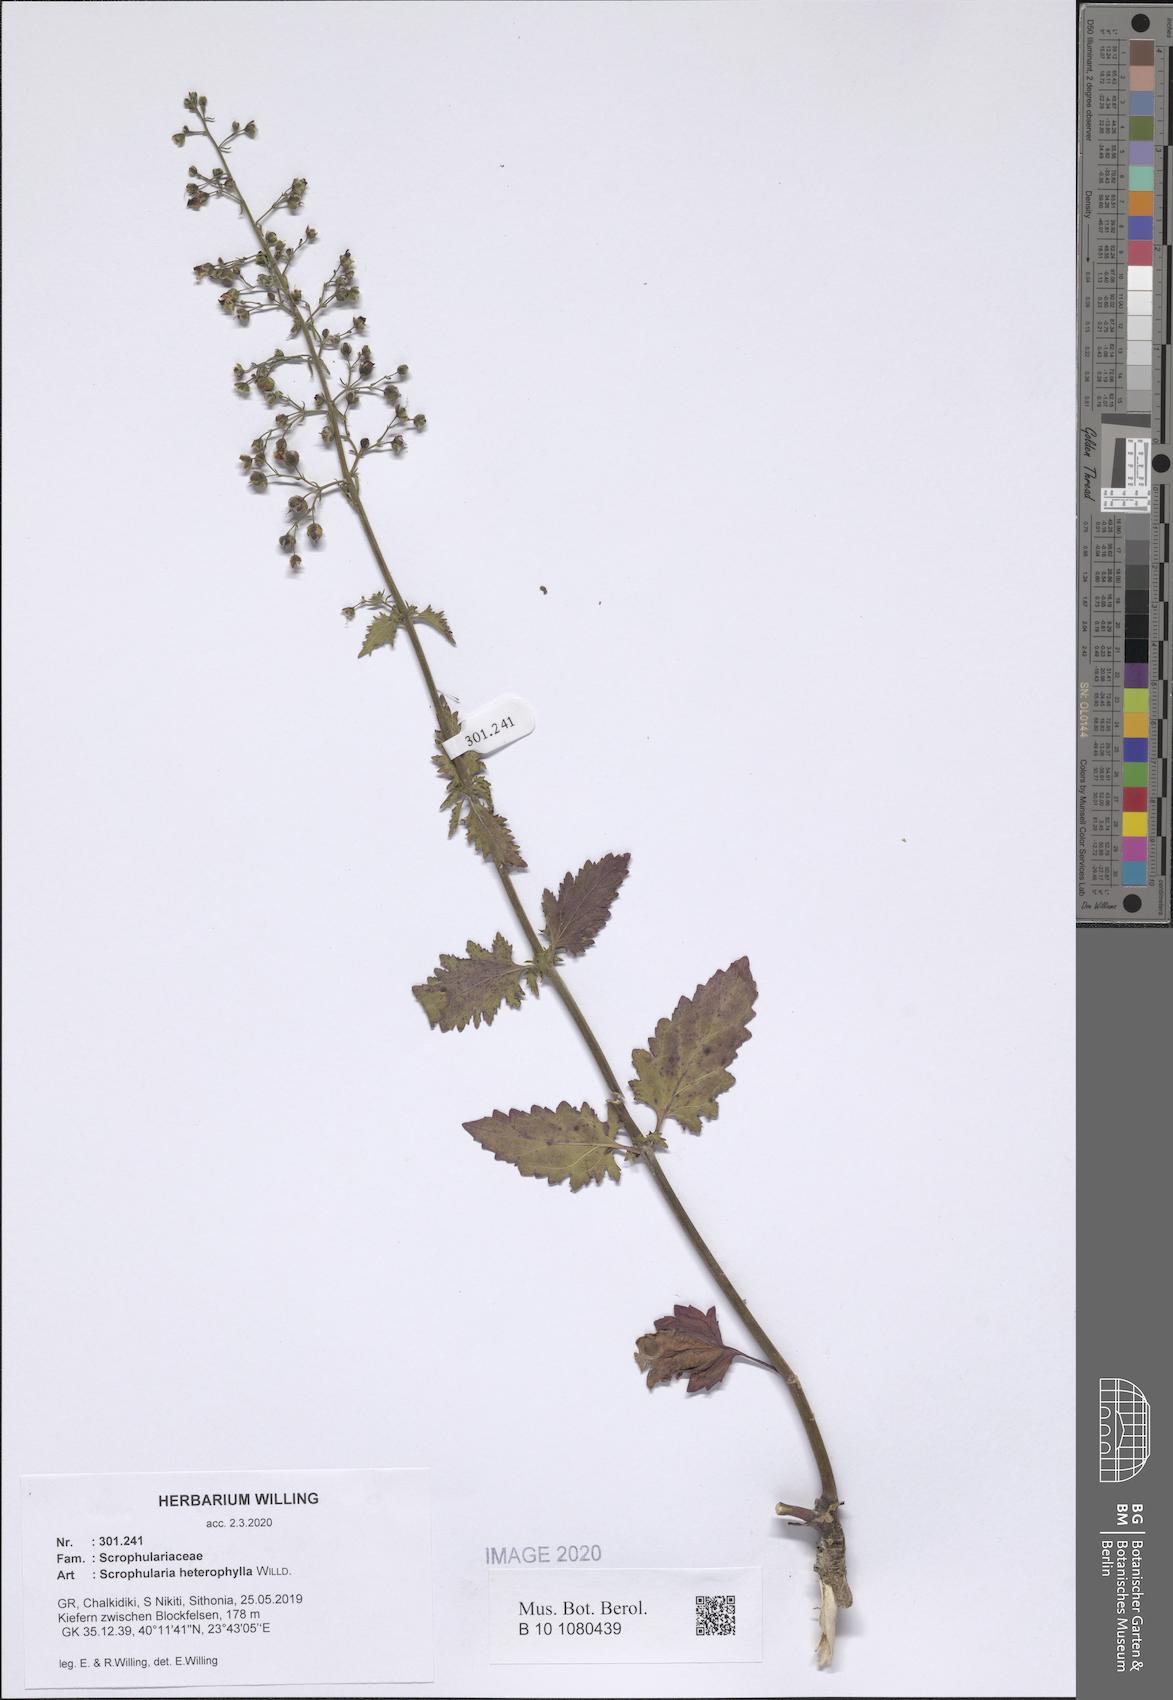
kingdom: Plantae
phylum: Tracheophyta
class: Magnoliopsida
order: Lamiales
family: Scrophulariaceae
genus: Scrophularia
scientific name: Scrophularia heterophylla
